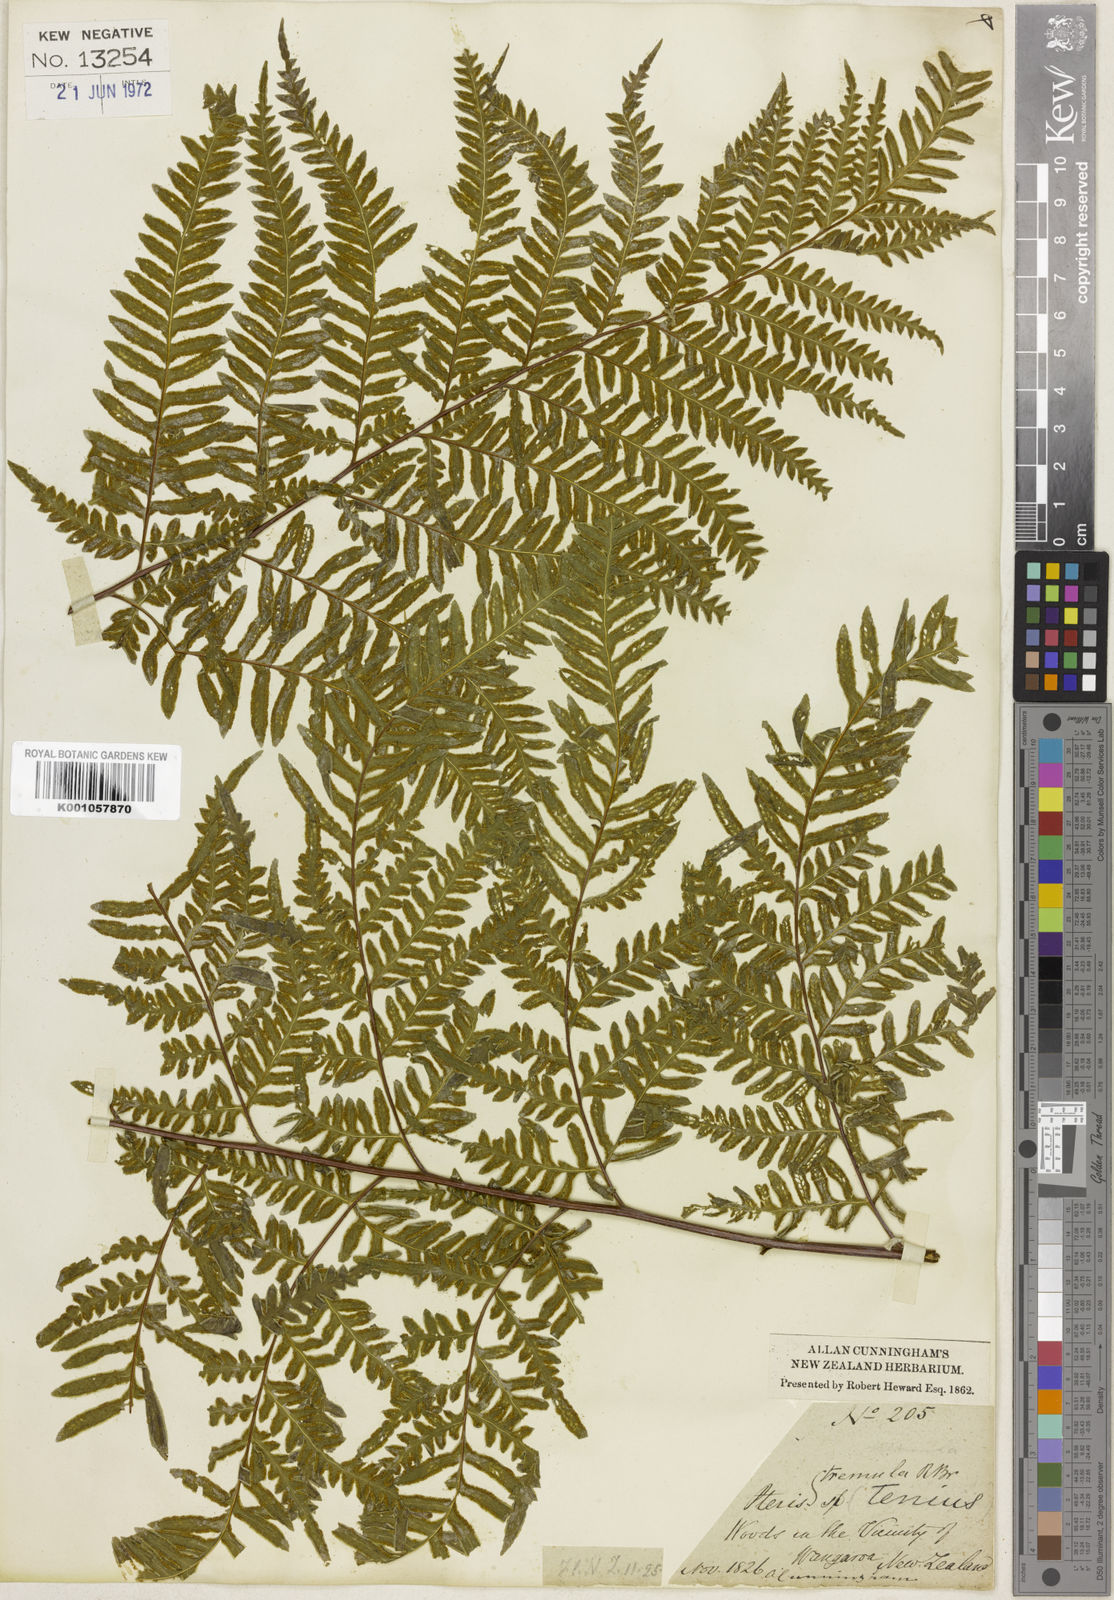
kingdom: Plantae
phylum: Tracheophyta
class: Polypodiopsida
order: Polypodiales
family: Pteridaceae
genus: Pteris
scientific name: Pteris tremula
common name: Australian brake
